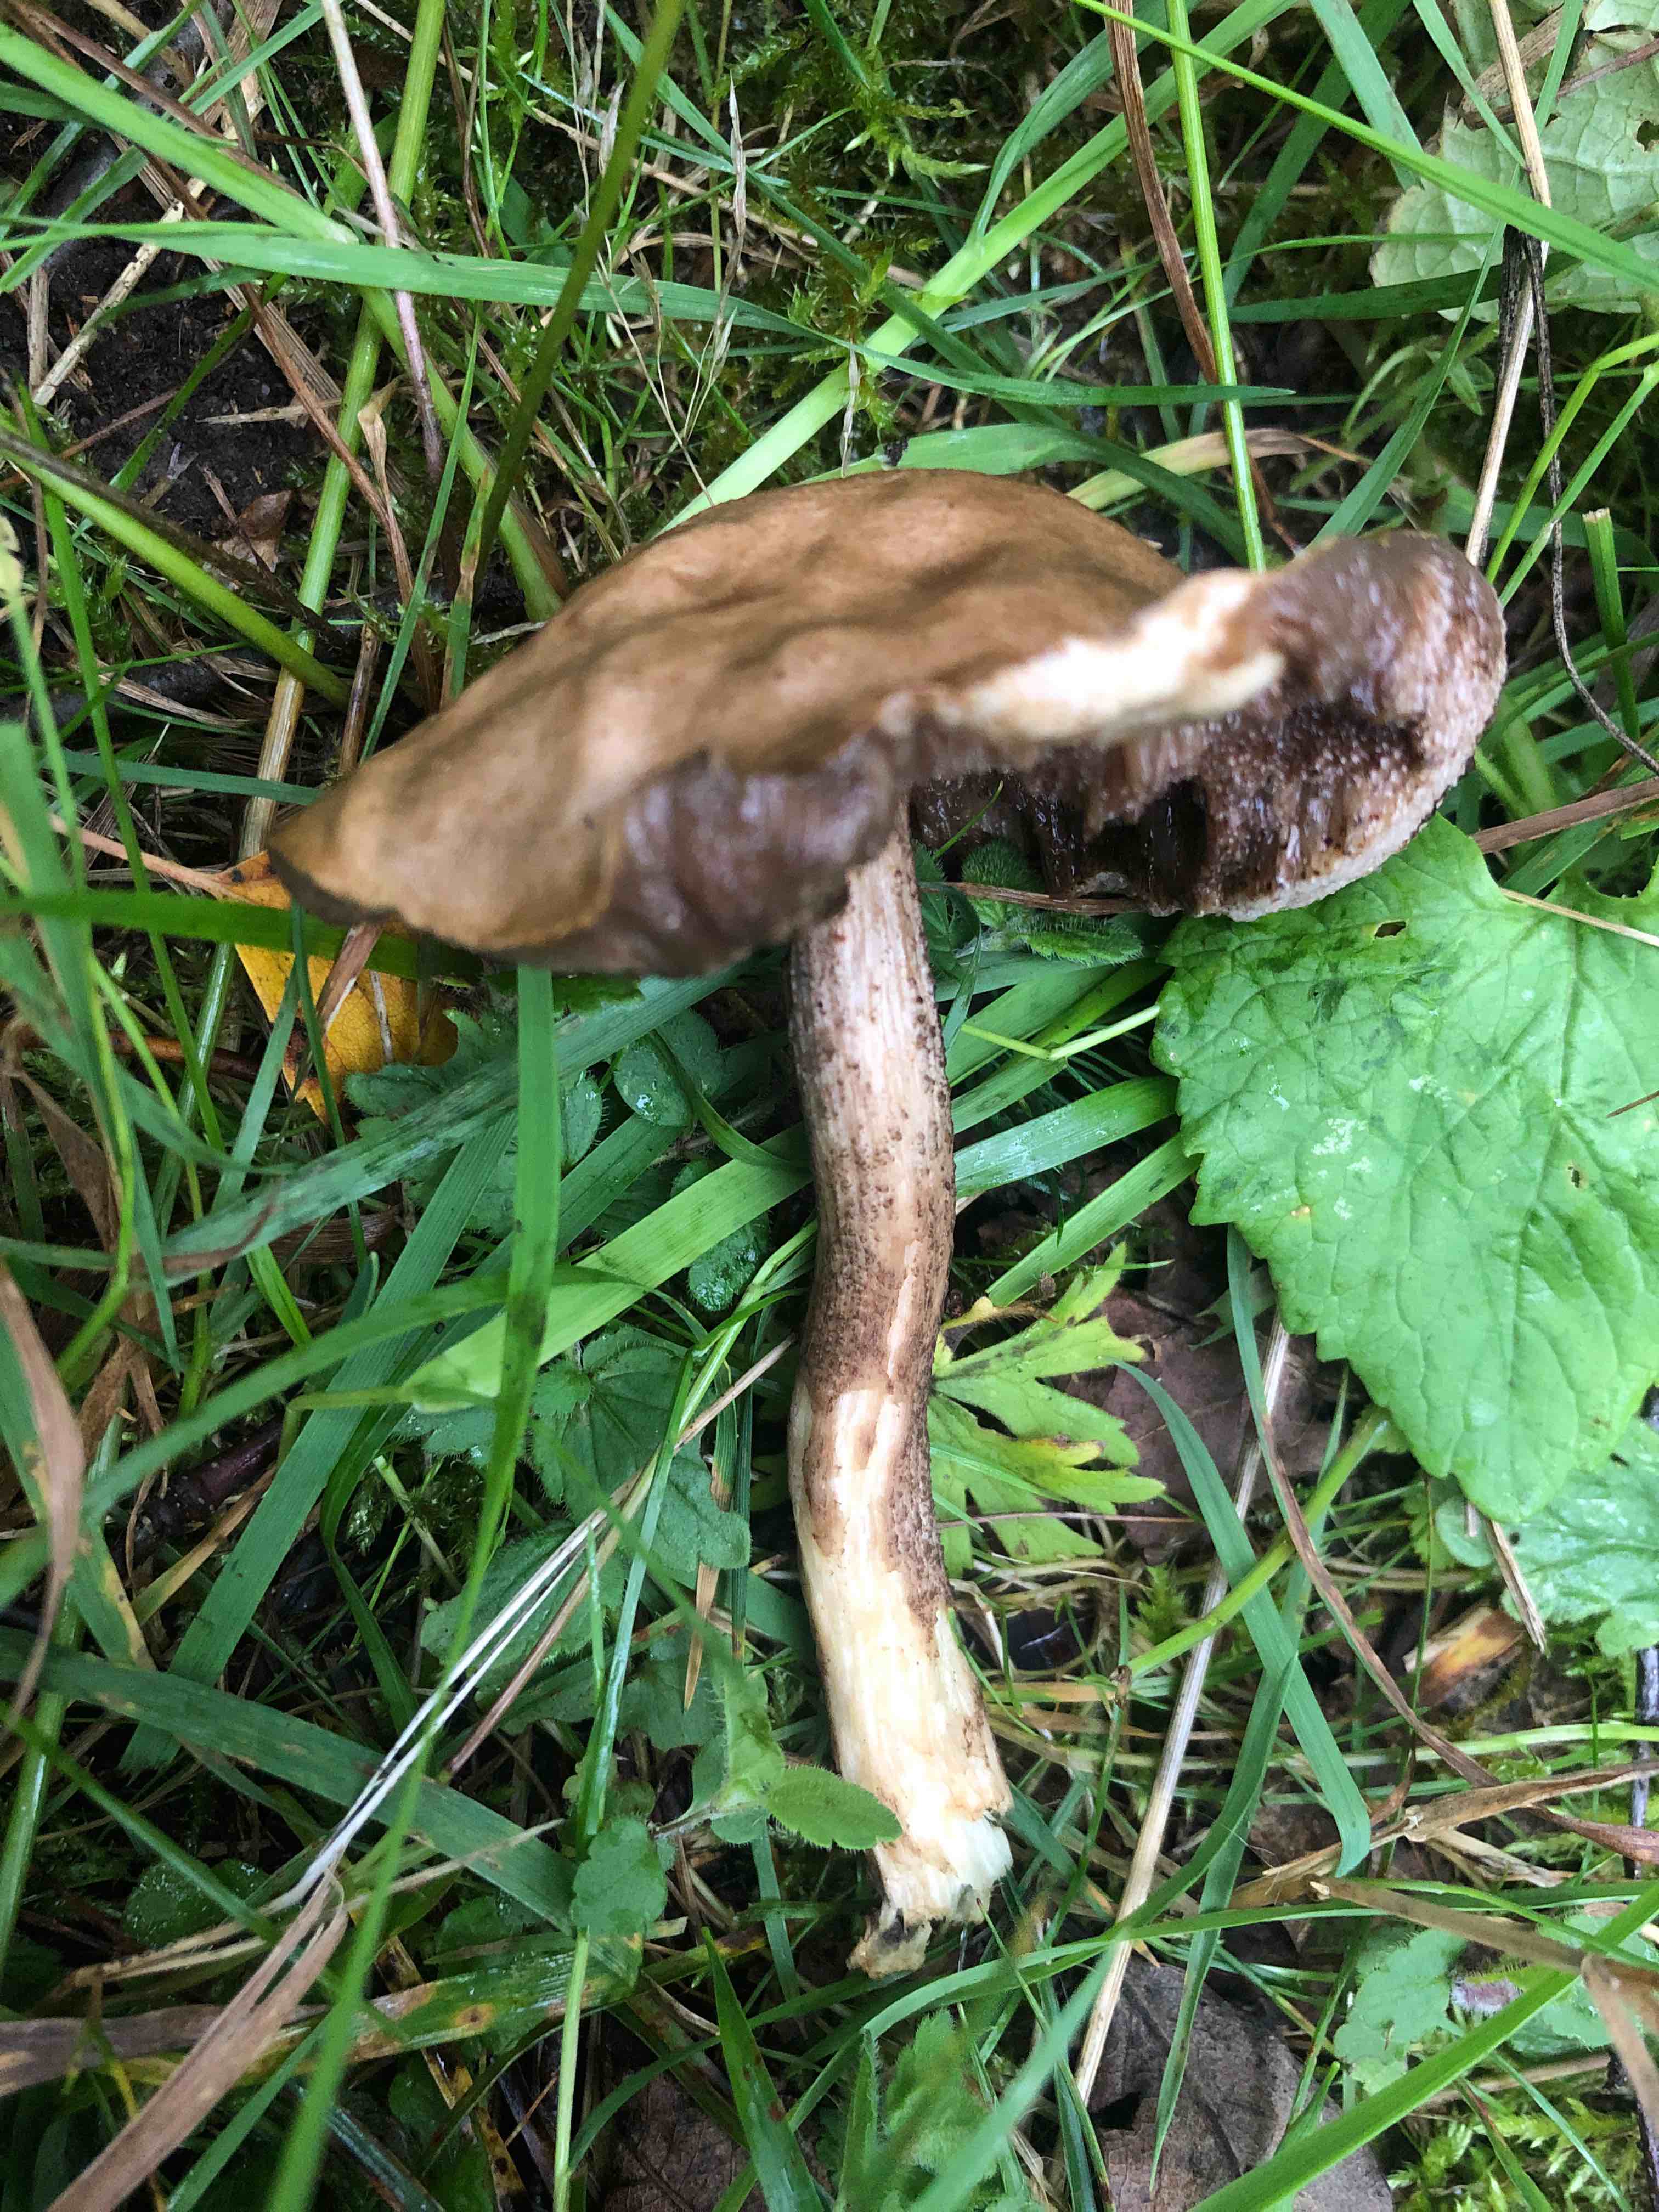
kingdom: Fungi
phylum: Basidiomycota
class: Agaricomycetes
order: Boletales
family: Boletaceae
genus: Leccinum
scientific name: Leccinum
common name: skælrørhat
